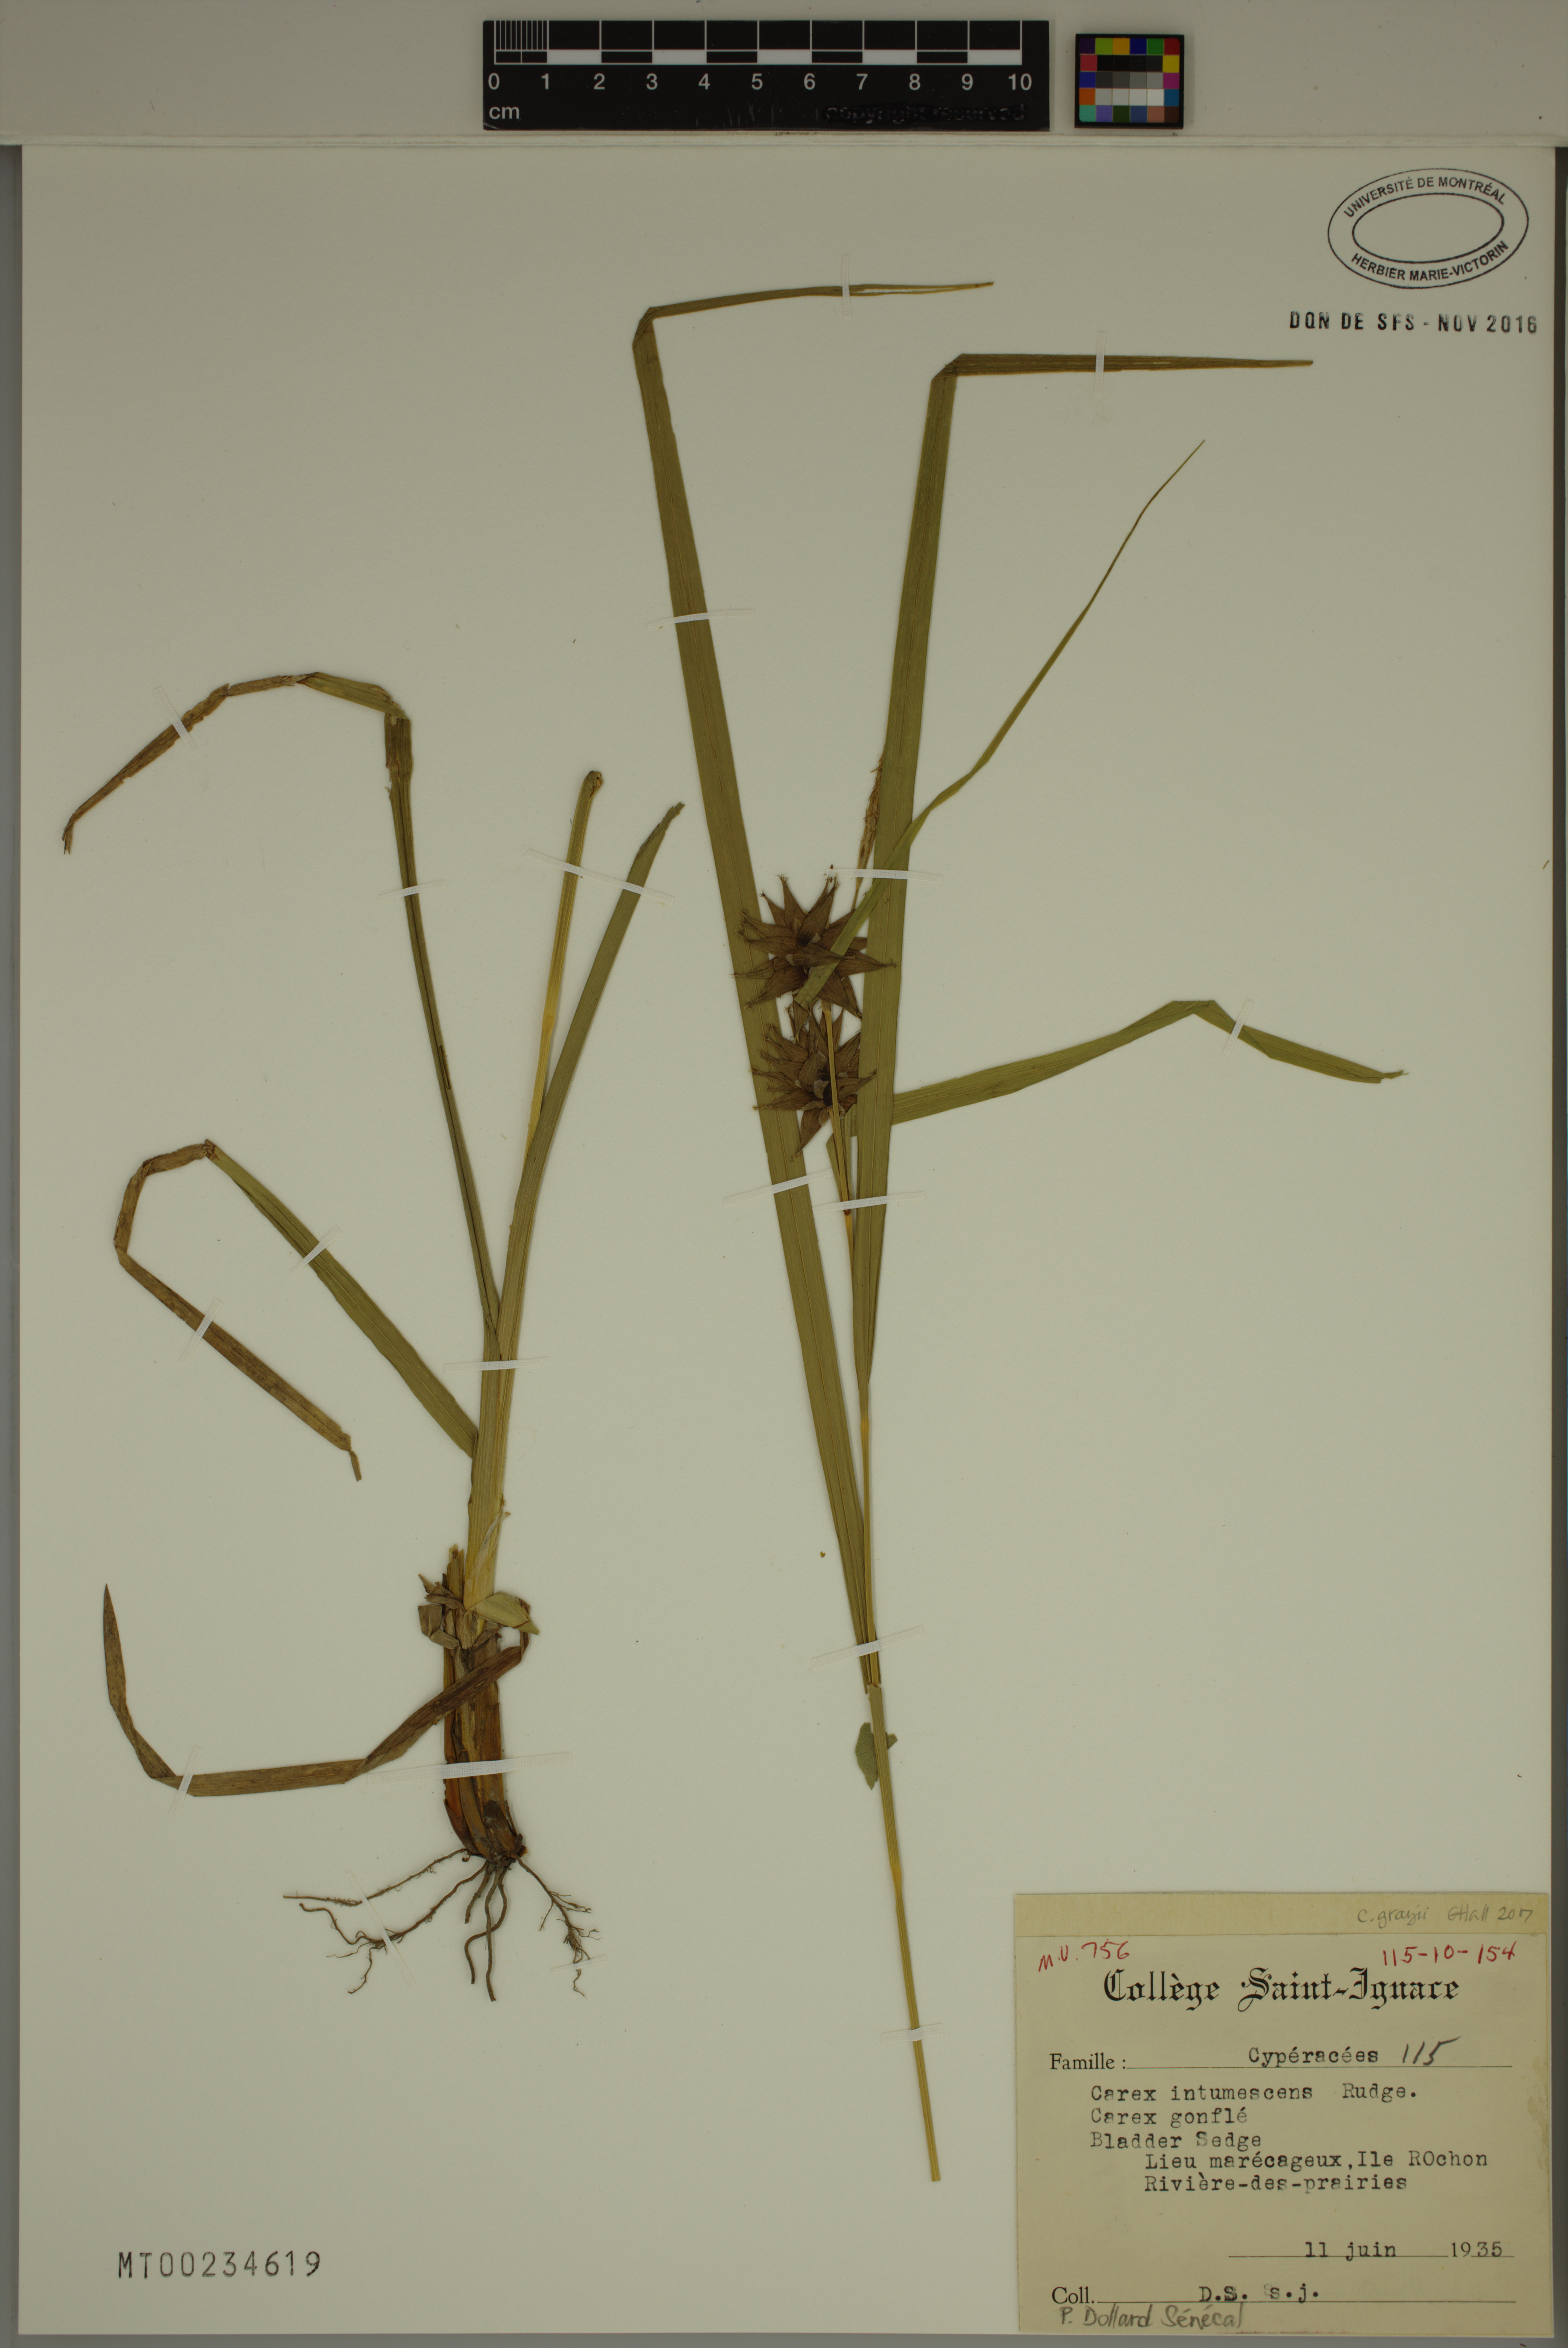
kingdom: Plantae
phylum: Tracheophyta
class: Liliopsida
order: Poales
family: Cyperaceae
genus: Carex
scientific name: Carex grayi
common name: Asa gray's sedge
